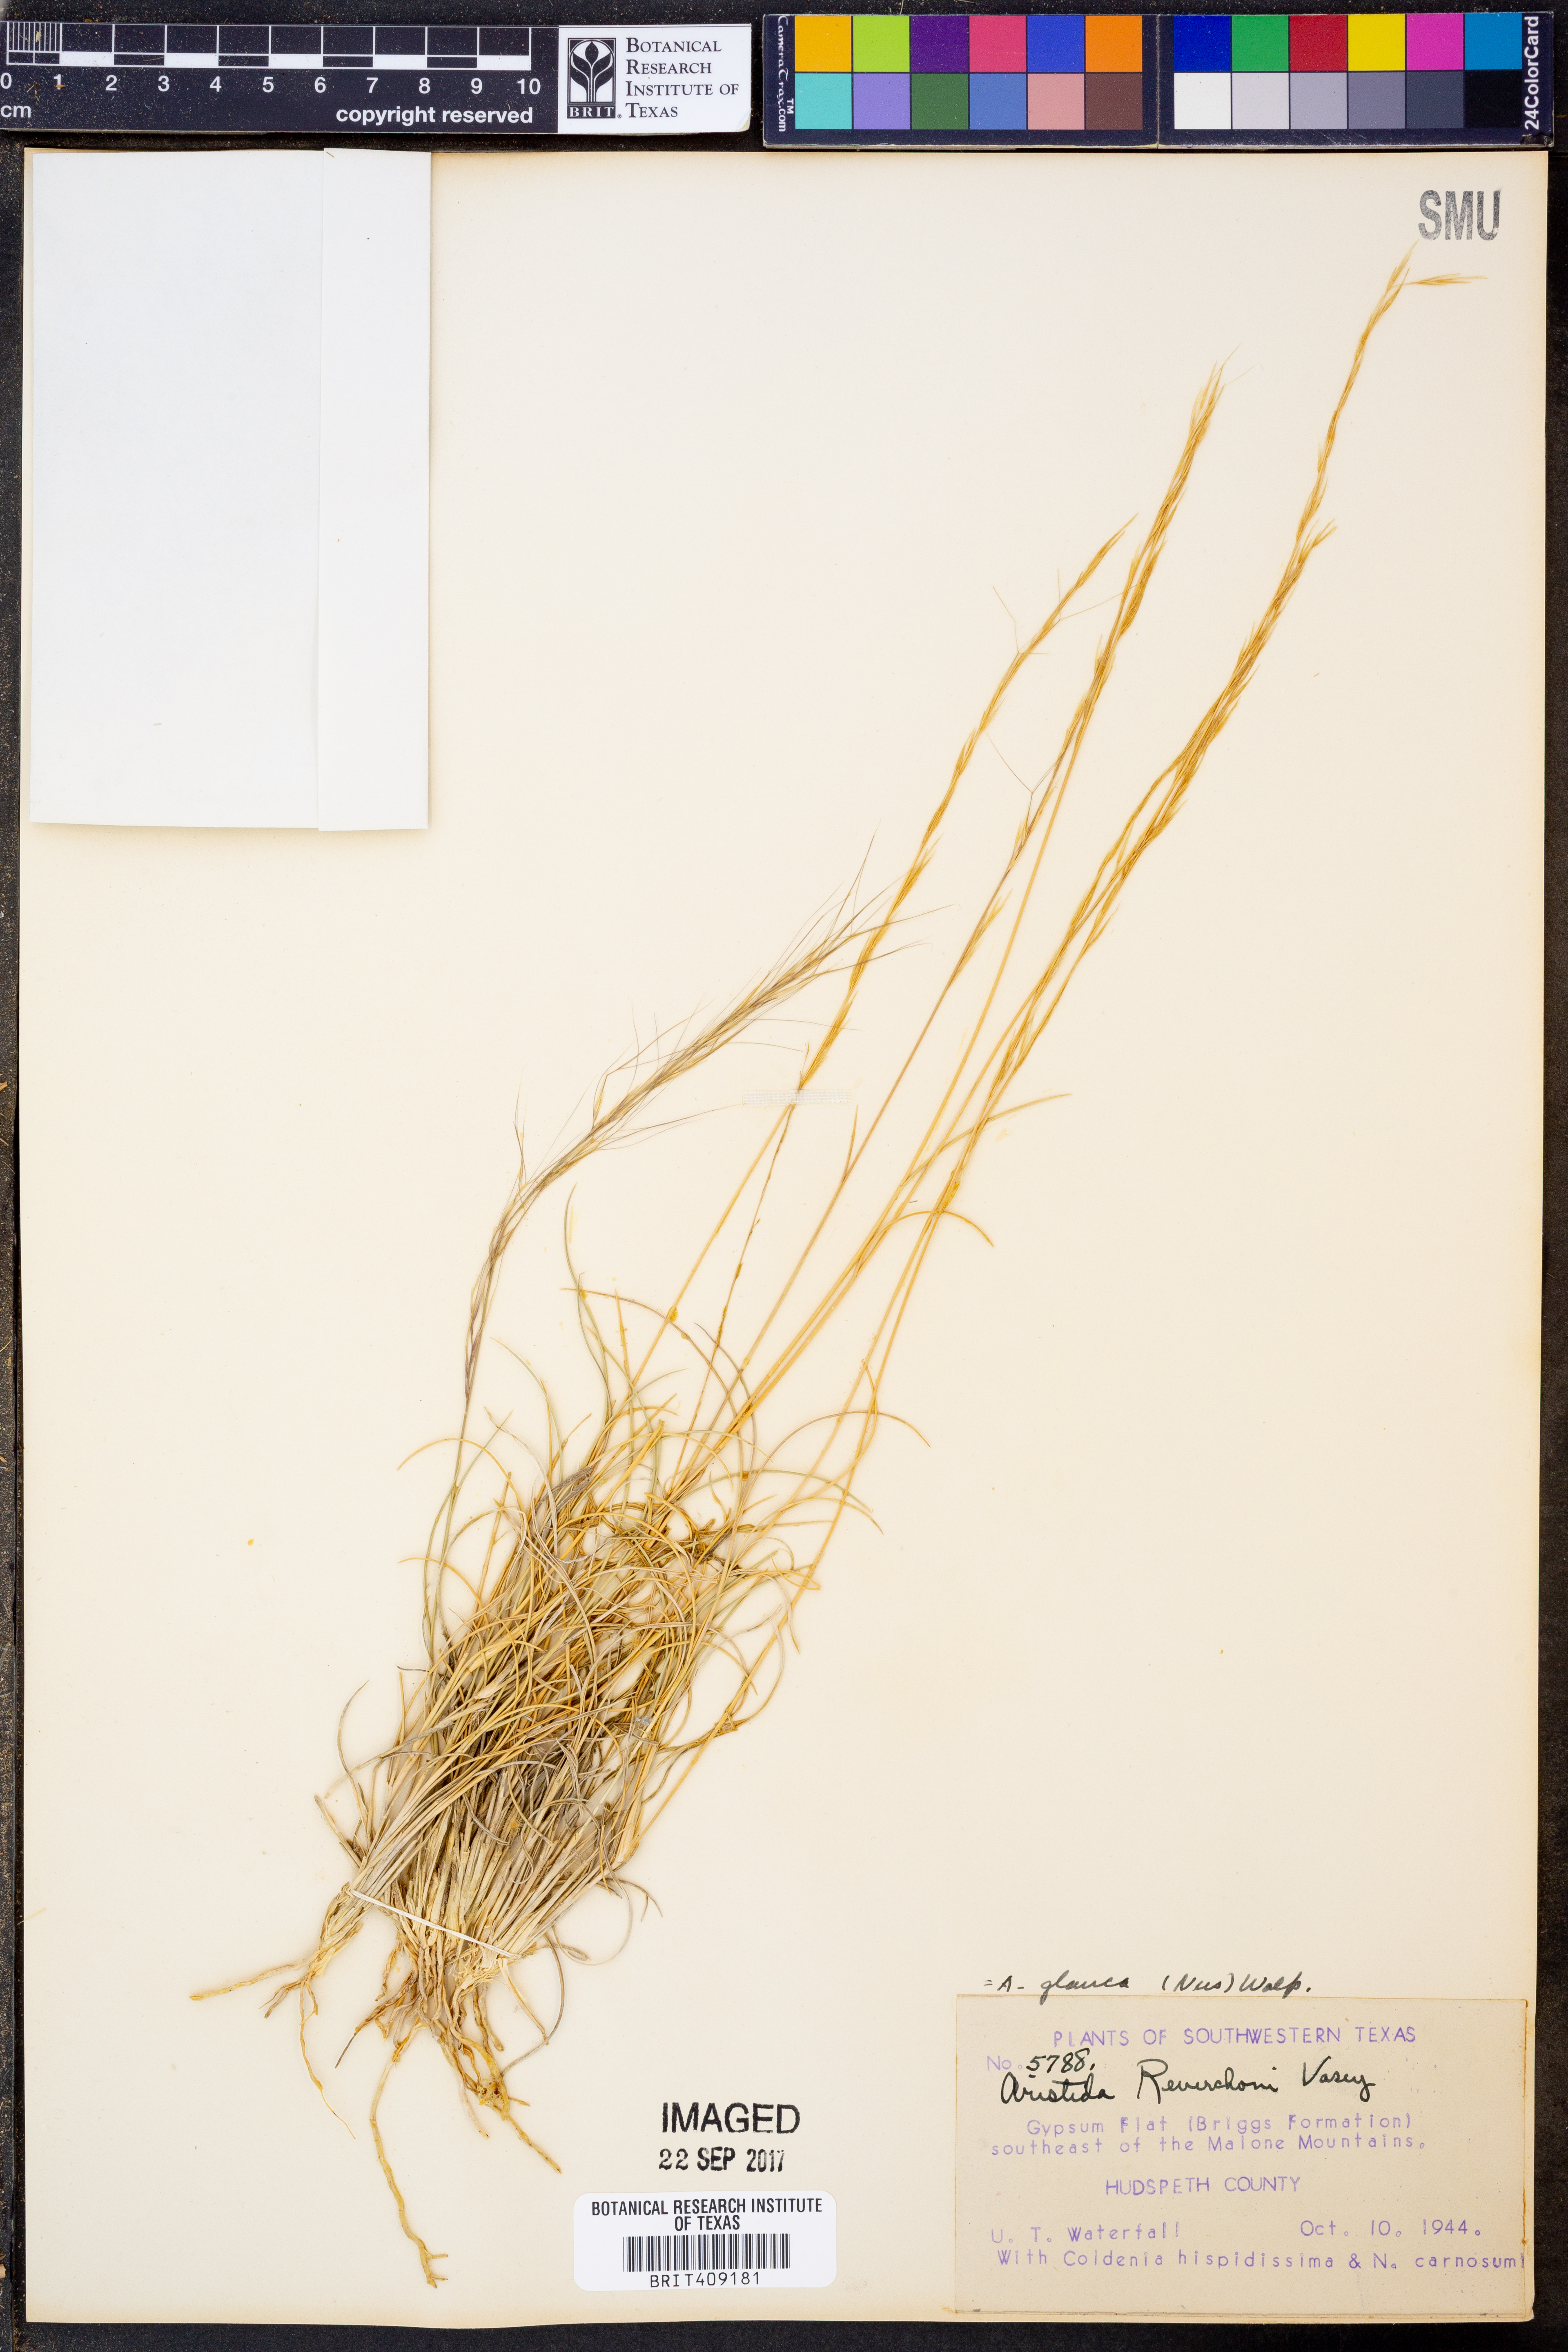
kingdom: Plantae
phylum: Tracheophyta
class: Liliopsida
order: Poales
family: Poaceae
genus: Aristida
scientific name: Aristida glauca
